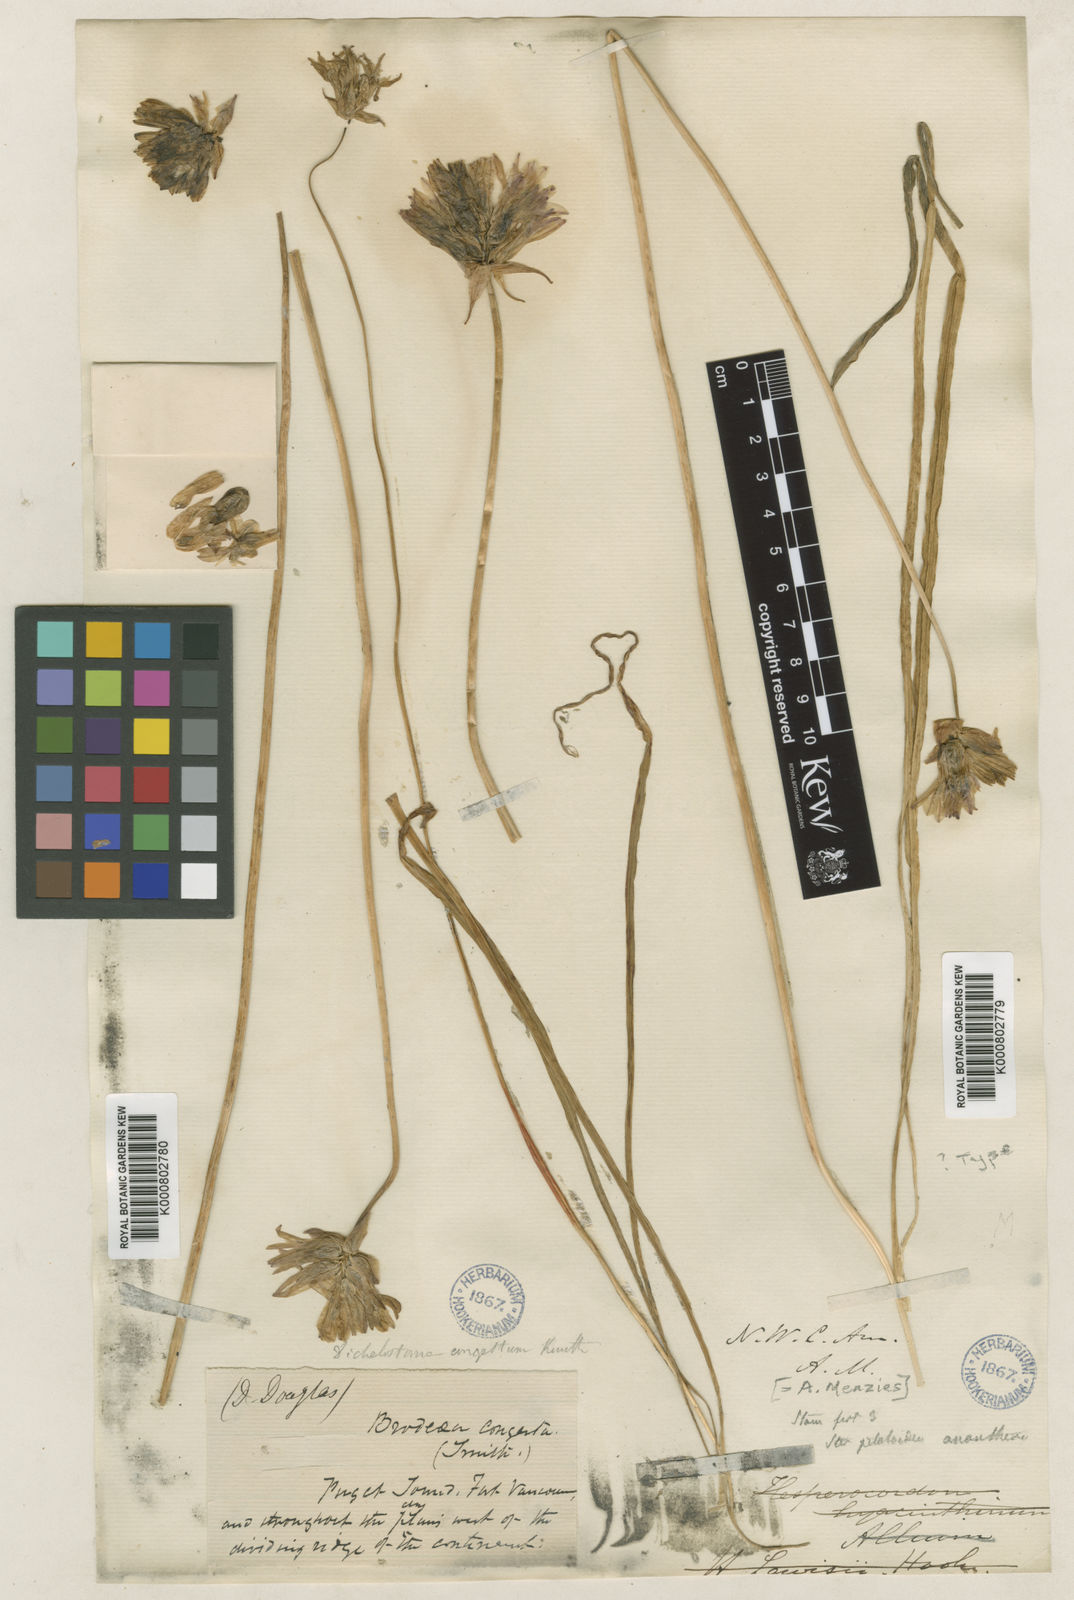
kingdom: Plantae
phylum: Tracheophyta
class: Liliopsida
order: Asparagales
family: Asparagaceae
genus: Dichelostemma
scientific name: Dichelostemma congestum
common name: Fork-tooth ookow
